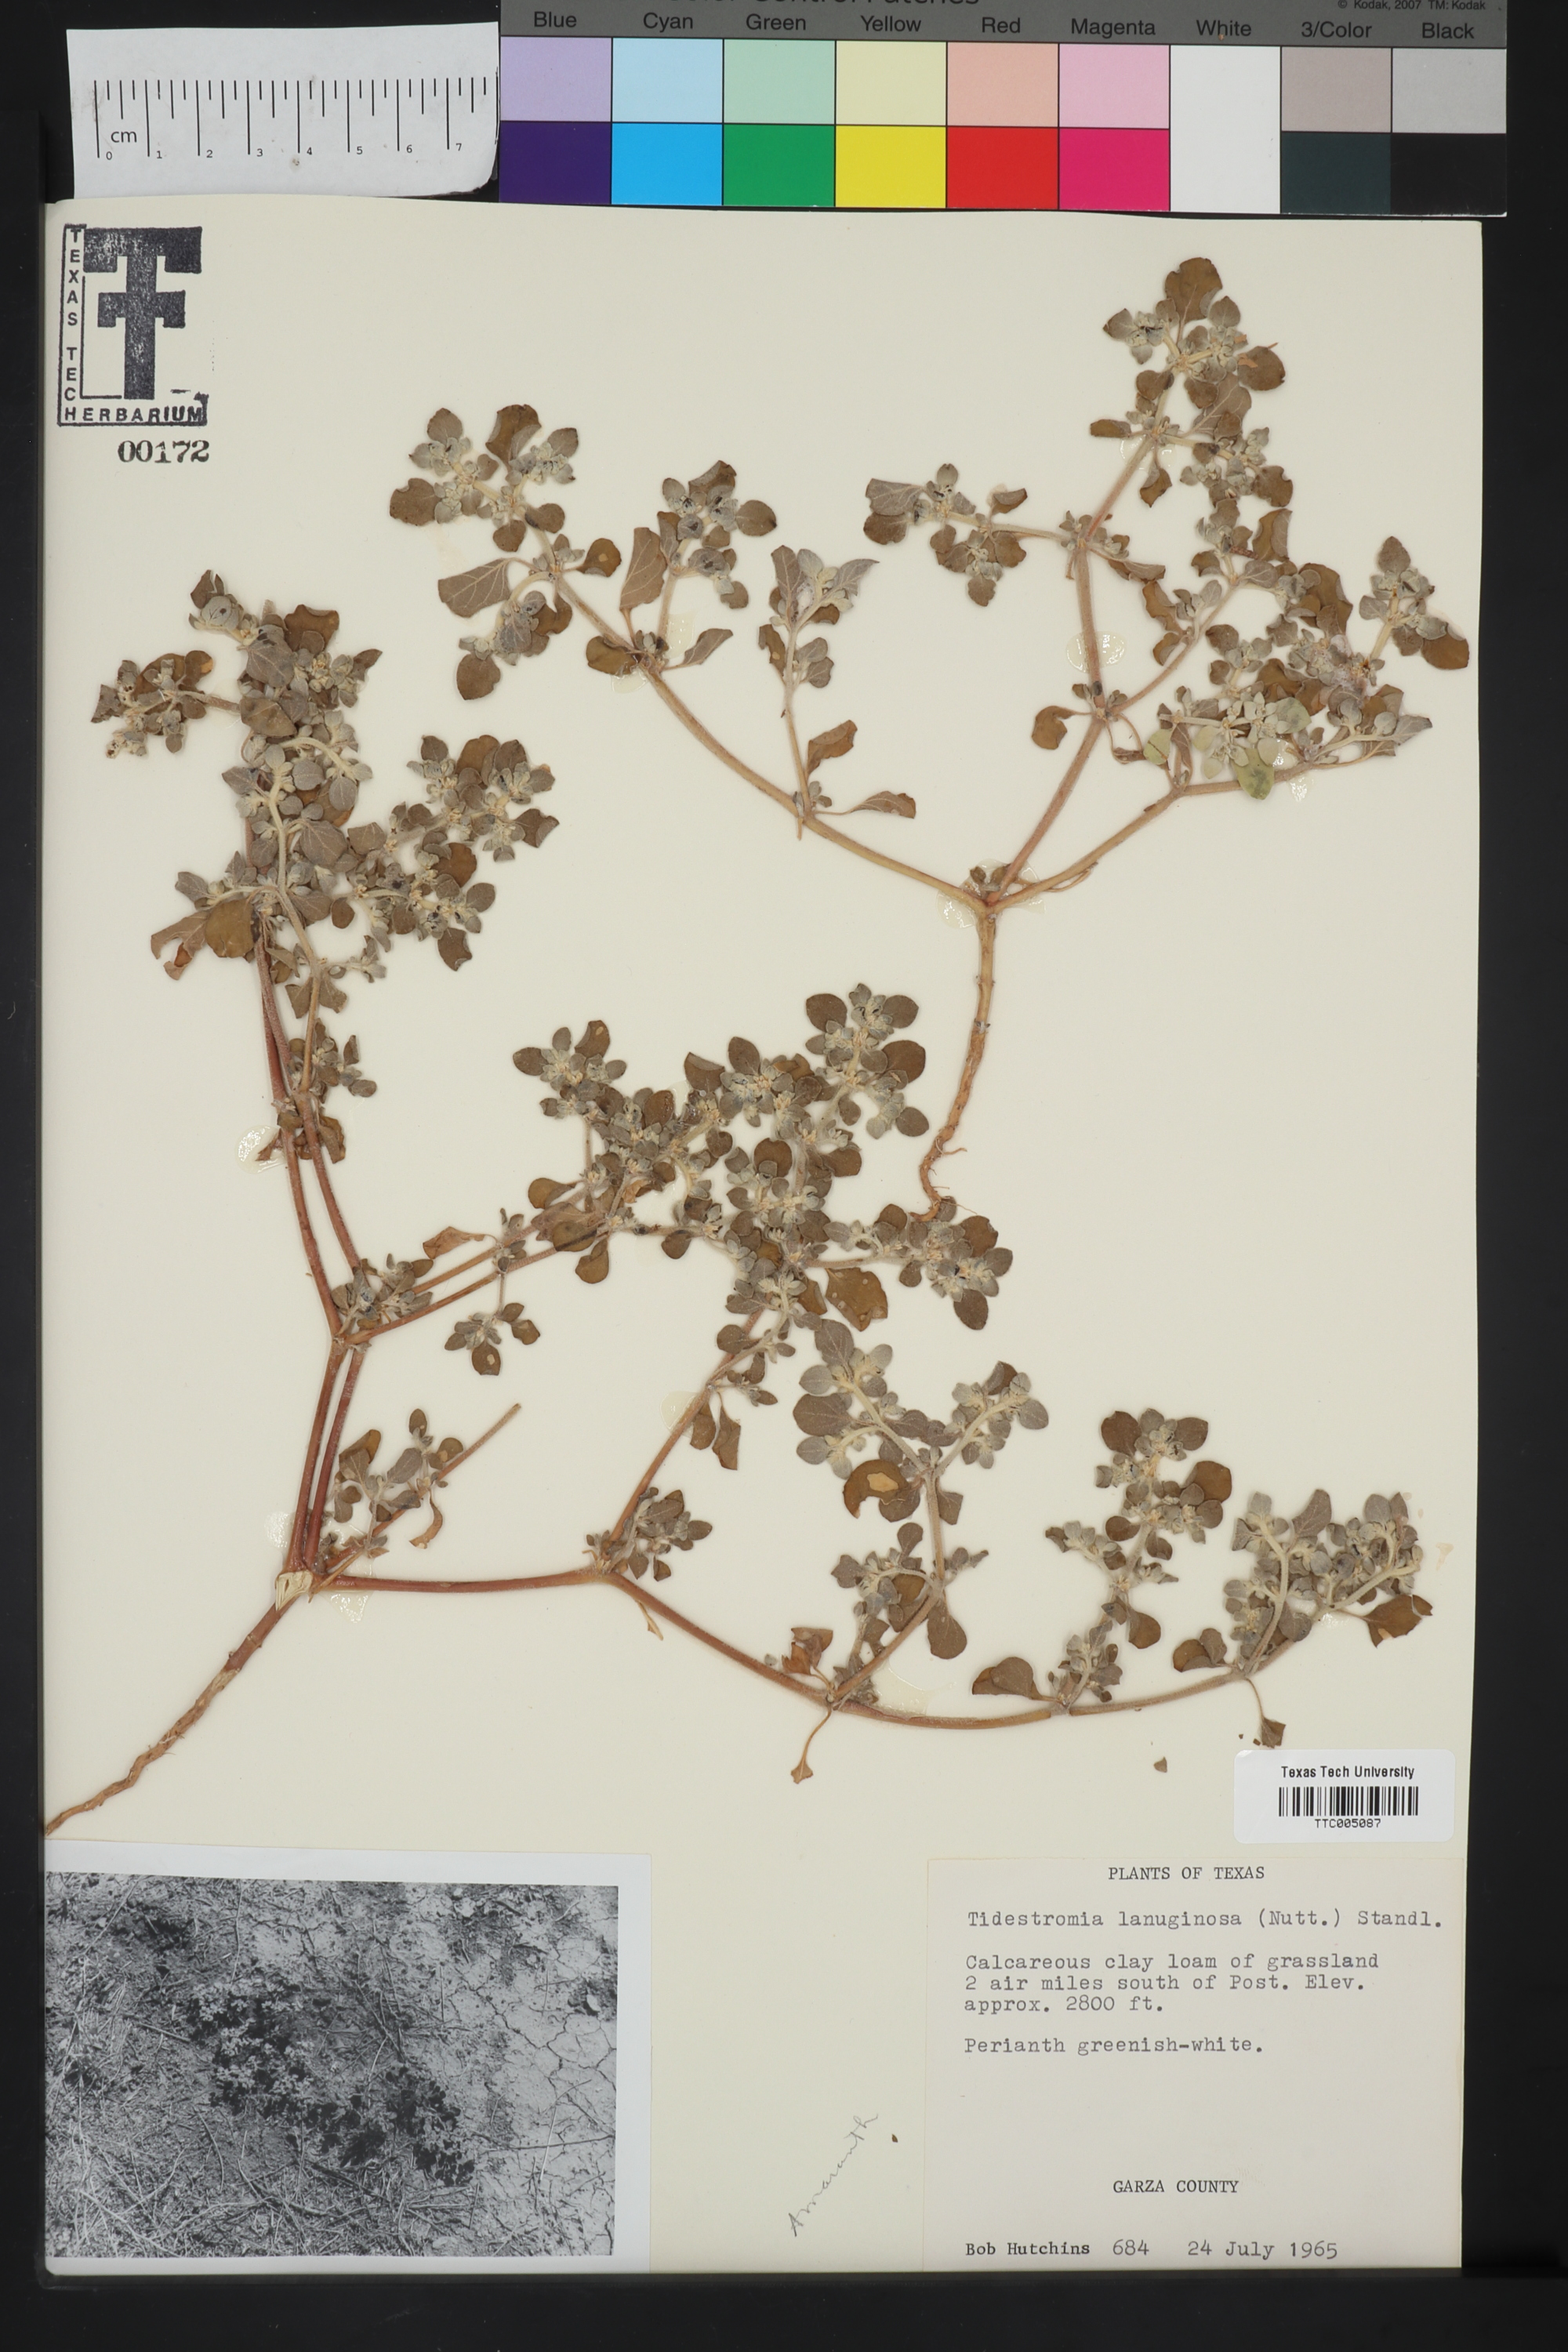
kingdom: Plantae
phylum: Tracheophyta
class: Magnoliopsida
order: Caryophyllales
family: Amaranthaceae
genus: Tidestromia
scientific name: Tidestromia lanuginosa
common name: Woolly tidestromia
